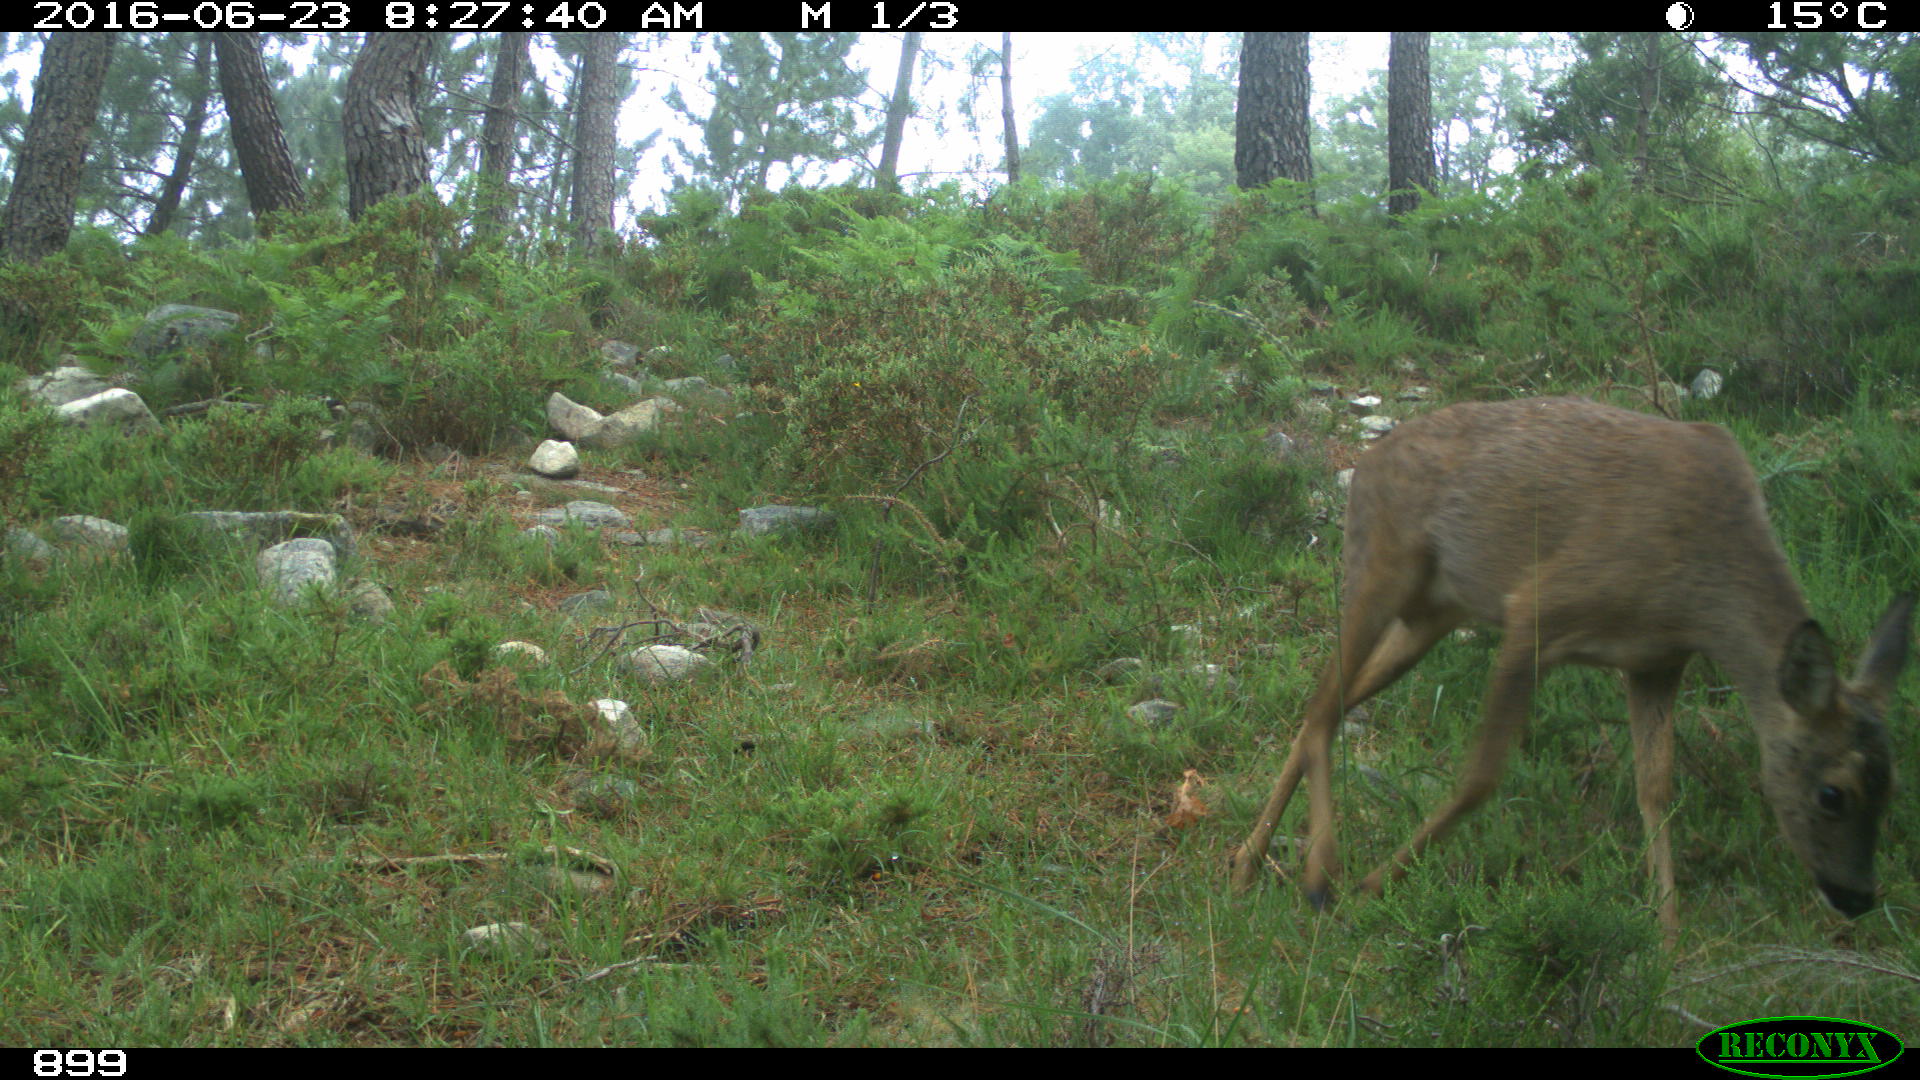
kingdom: Animalia
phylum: Chordata
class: Mammalia
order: Artiodactyla
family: Cervidae
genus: Capreolus
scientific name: Capreolus capreolus
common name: Western roe deer
